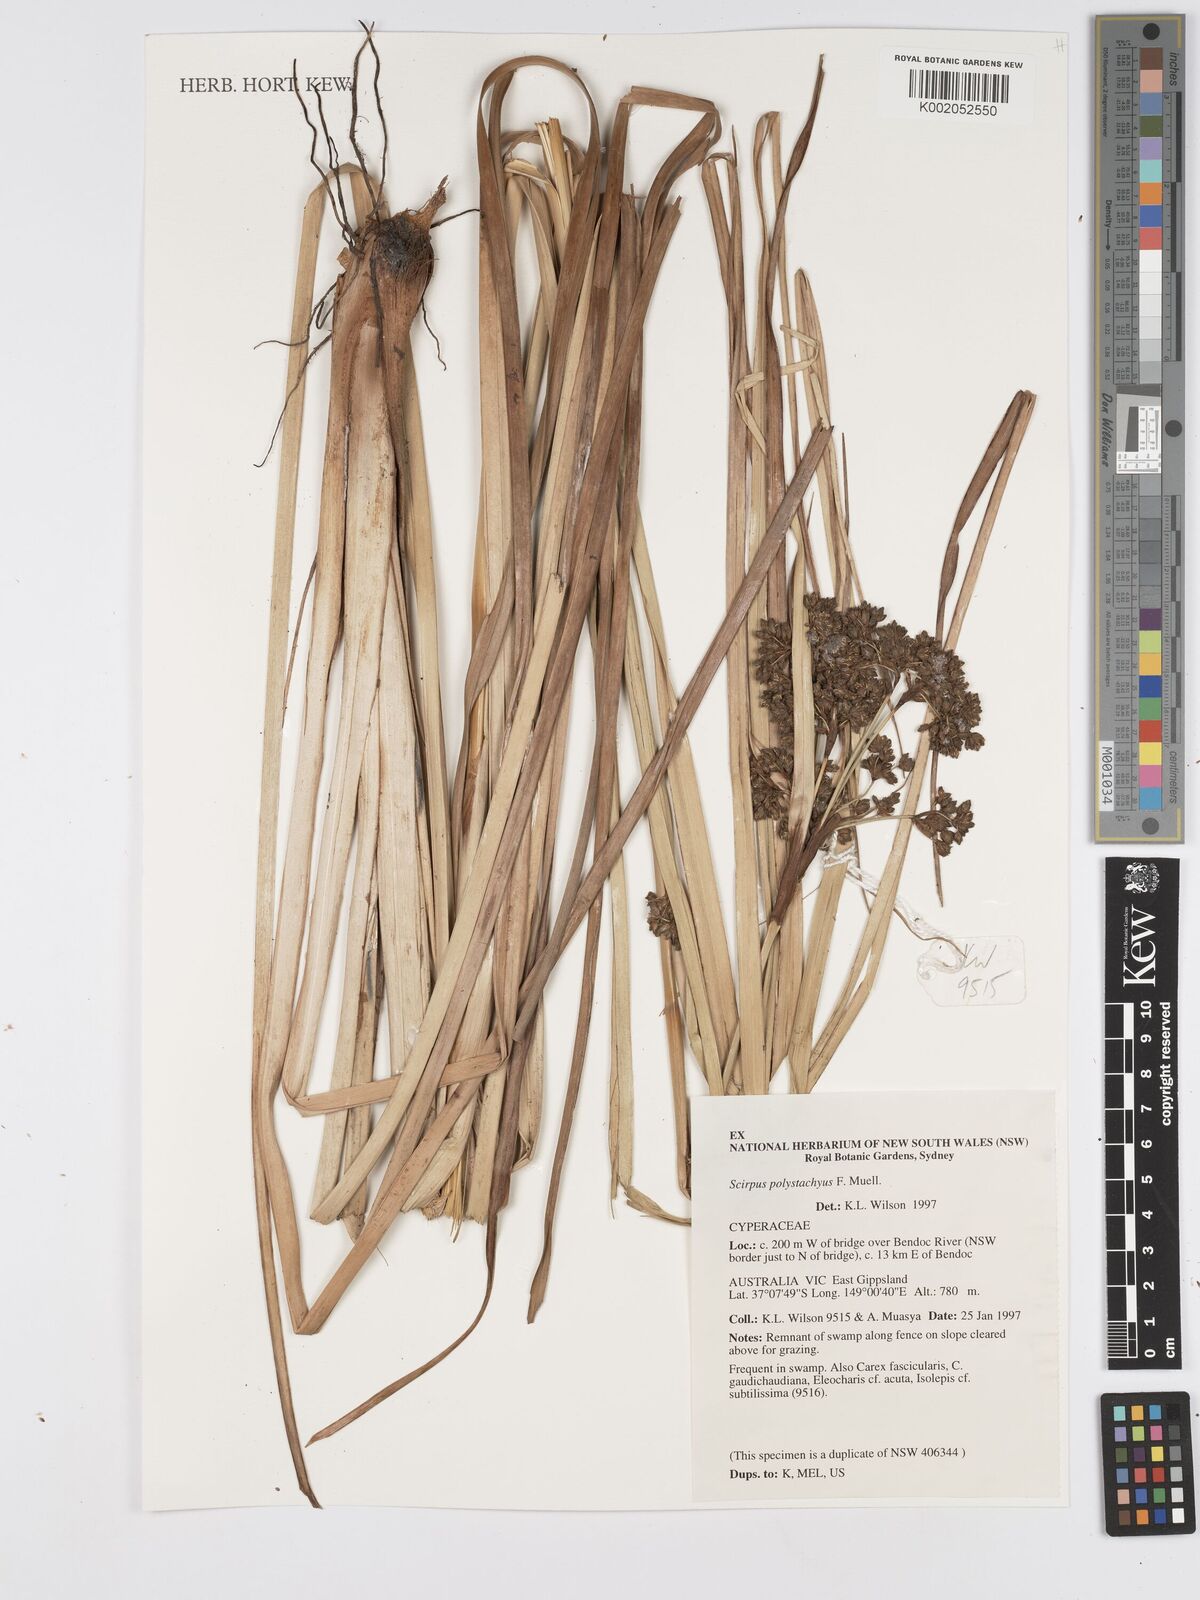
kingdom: Plantae
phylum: Tracheophyta
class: Liliopsida
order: Poales
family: Cyperaceae
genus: Scirpus
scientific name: Scirpus polystachyus
